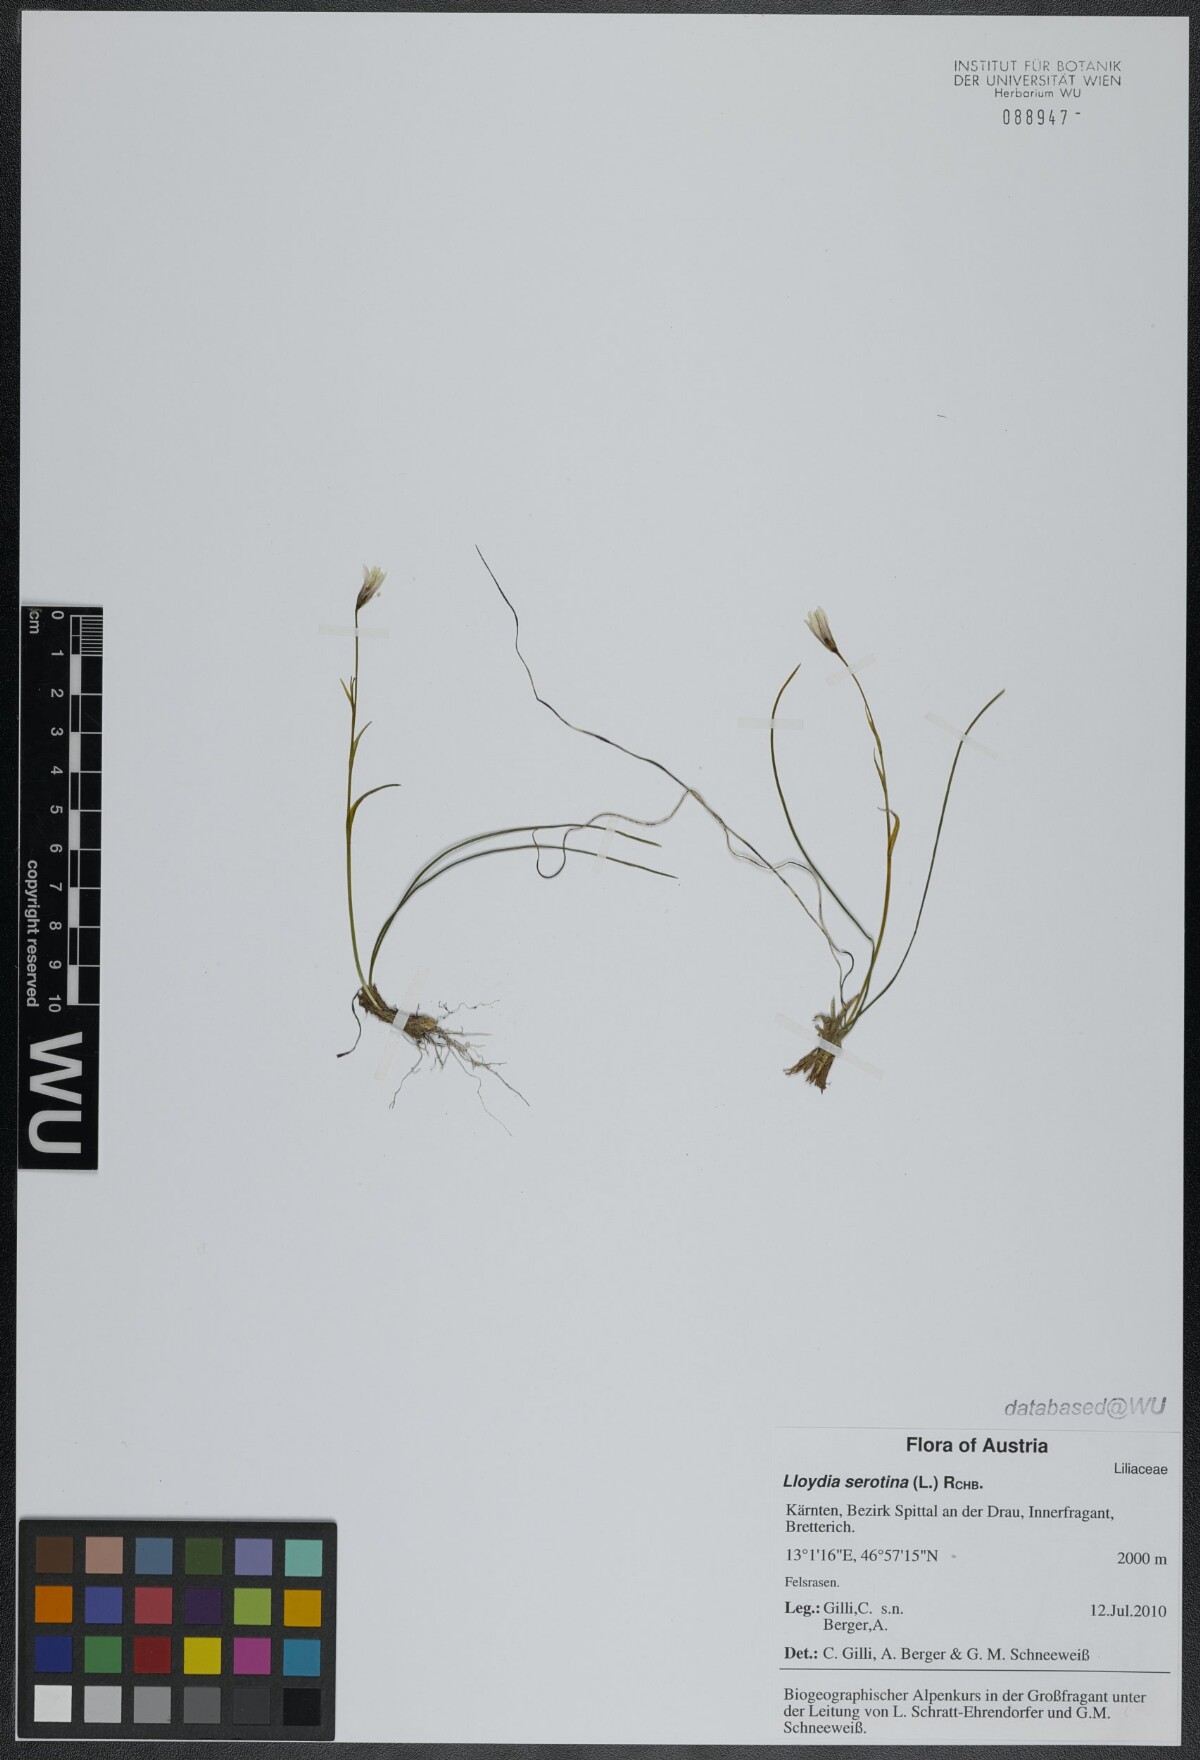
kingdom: Plantae
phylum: Tracheophyta
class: Liliopsida
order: Liliales
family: Liliaceae
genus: Gagea
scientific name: Gagea serotina
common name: Snowdon lily
